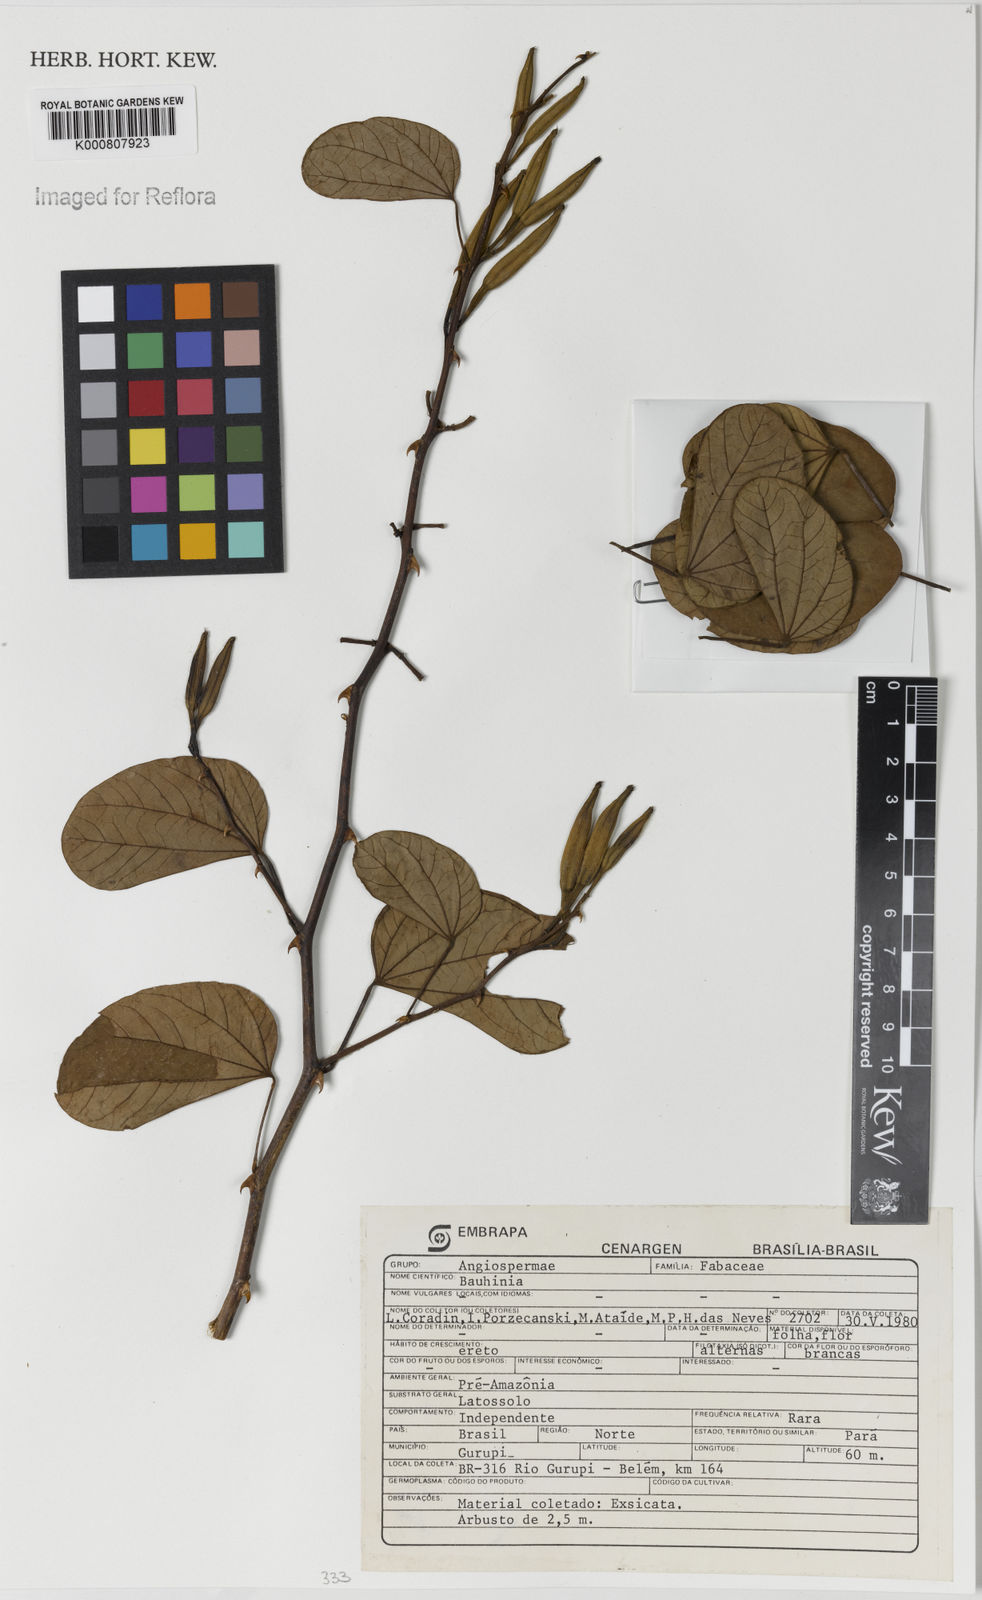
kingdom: Plantae
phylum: Tracheophyta
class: Magnoliopsida
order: Fabales
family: Fabaceae
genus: Bauhinia
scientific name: Bauhinia
